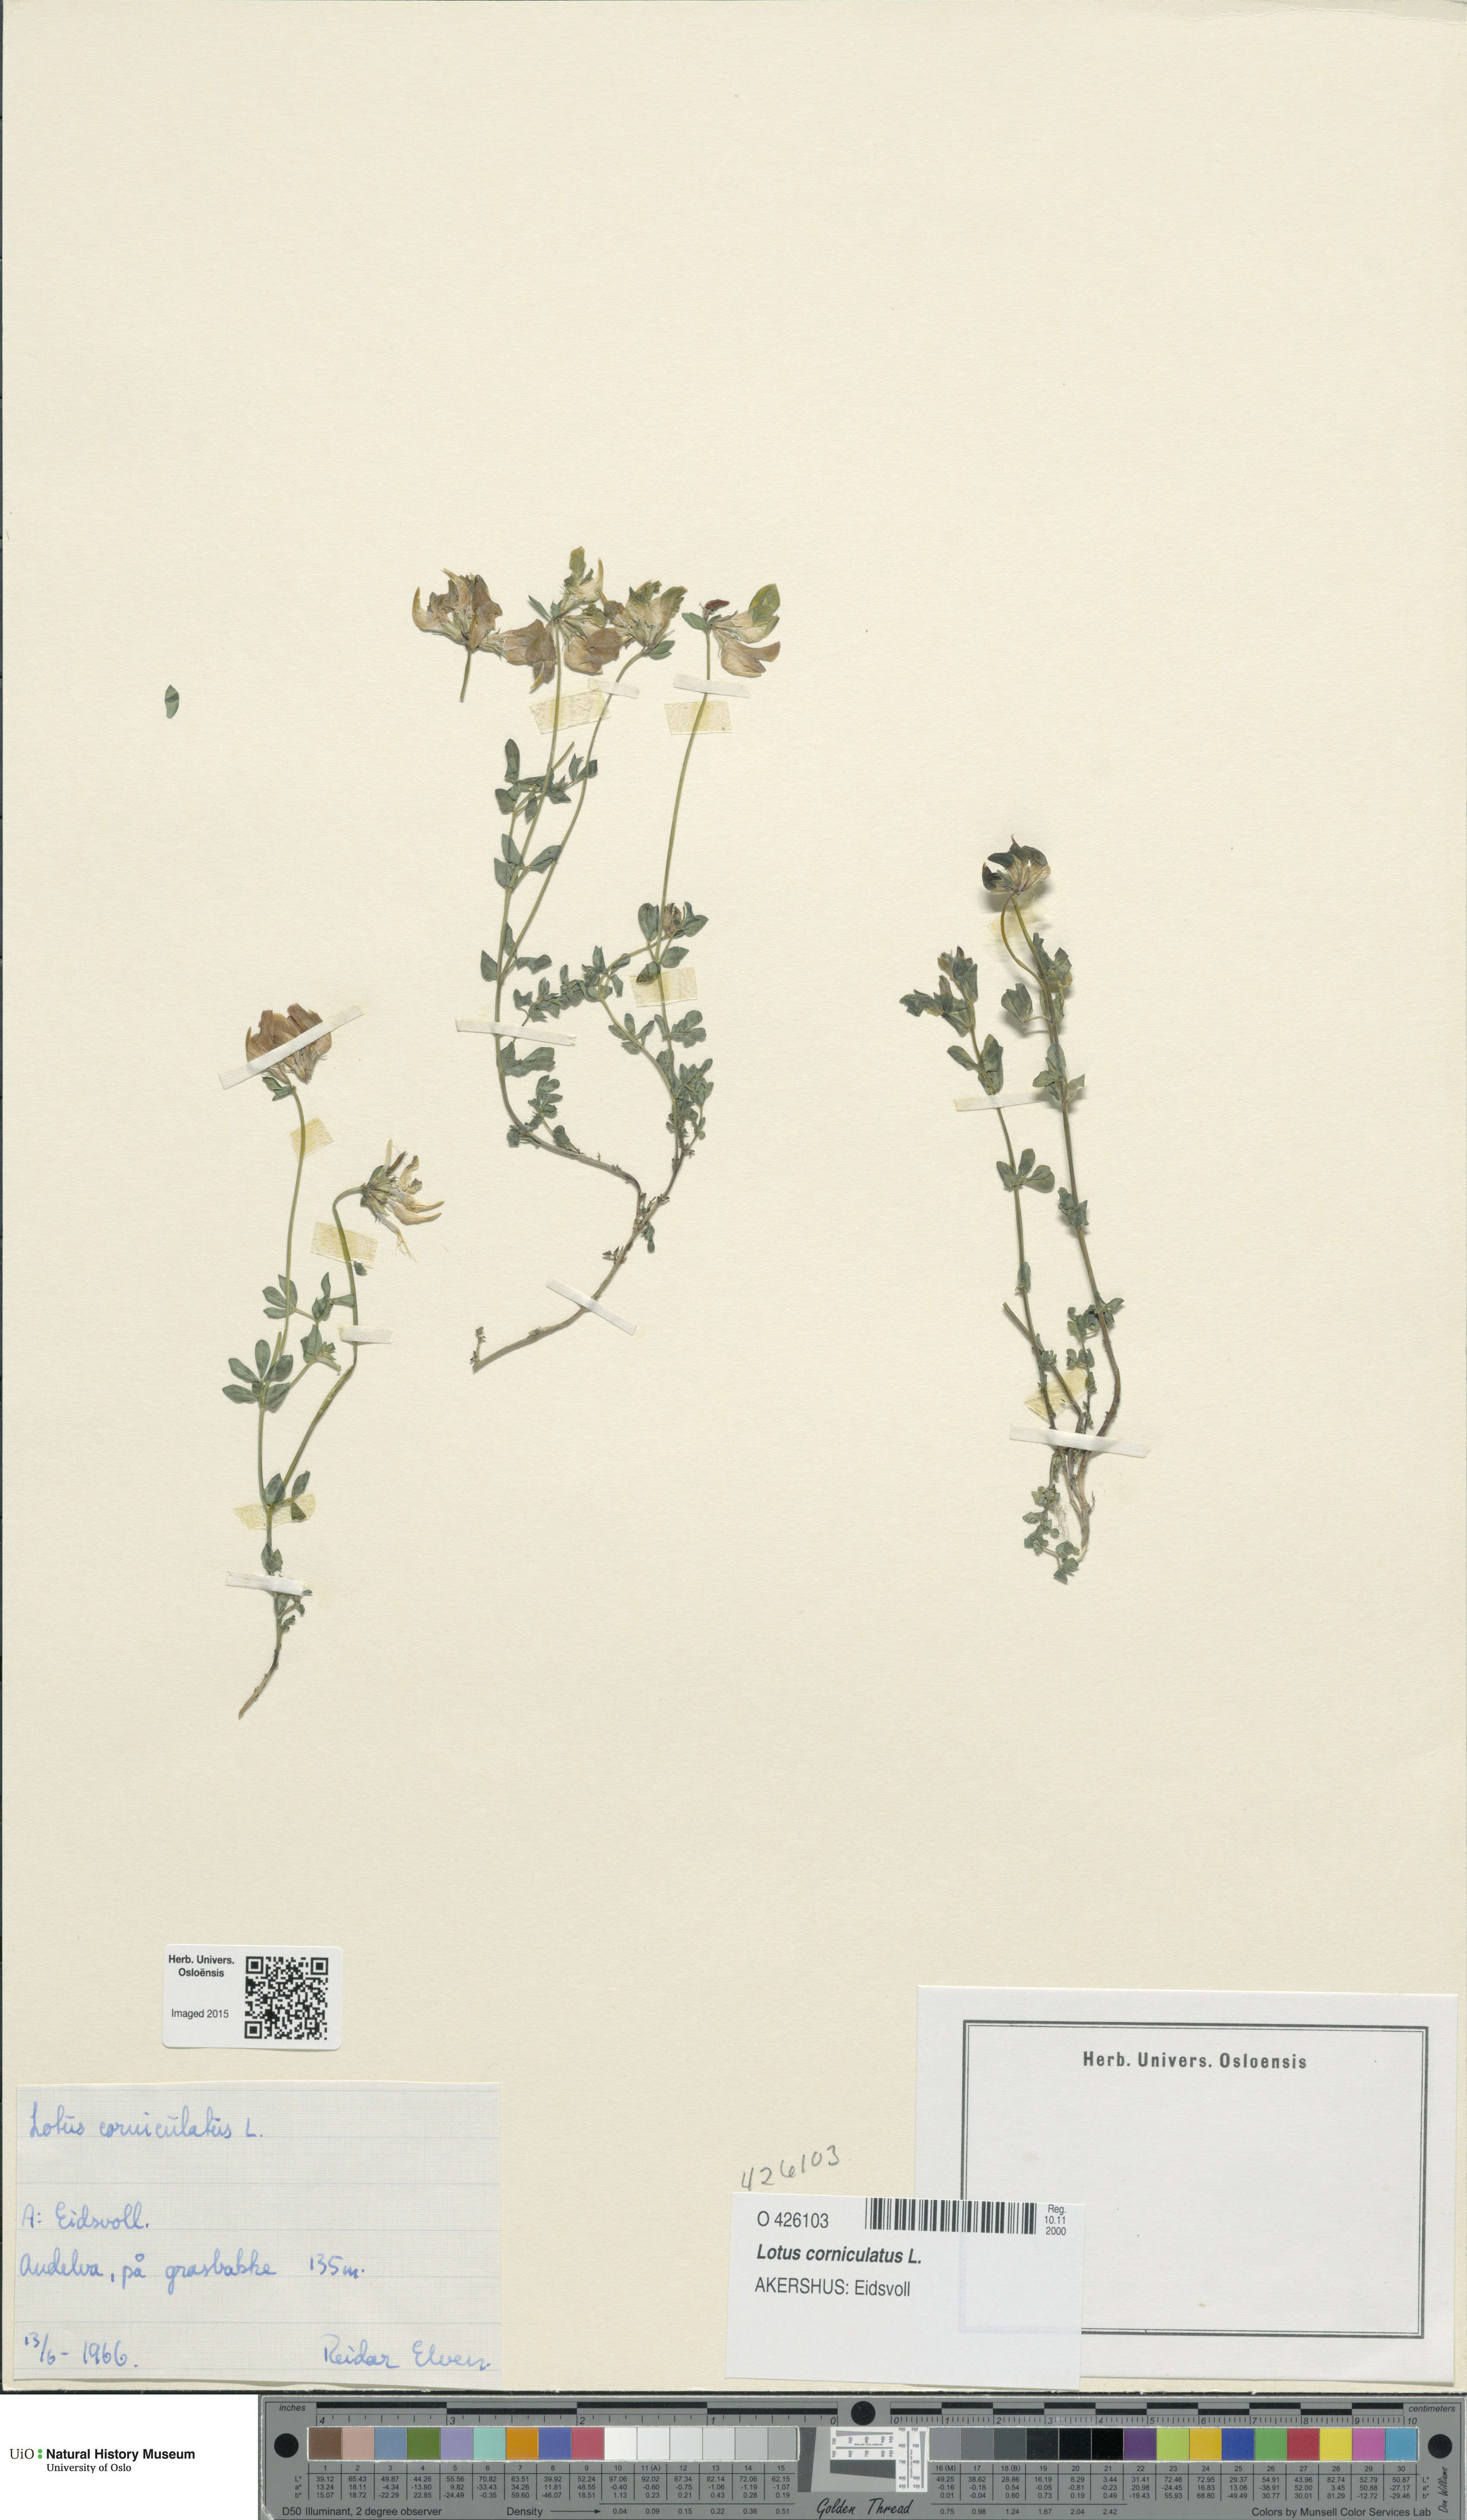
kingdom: Plantae
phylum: Tracheophyta
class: Magnoliopsida
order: Fabales
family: Fabaceae
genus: Lotus
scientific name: Lotus corniculatus
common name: Common bird's-foot-trefoil
